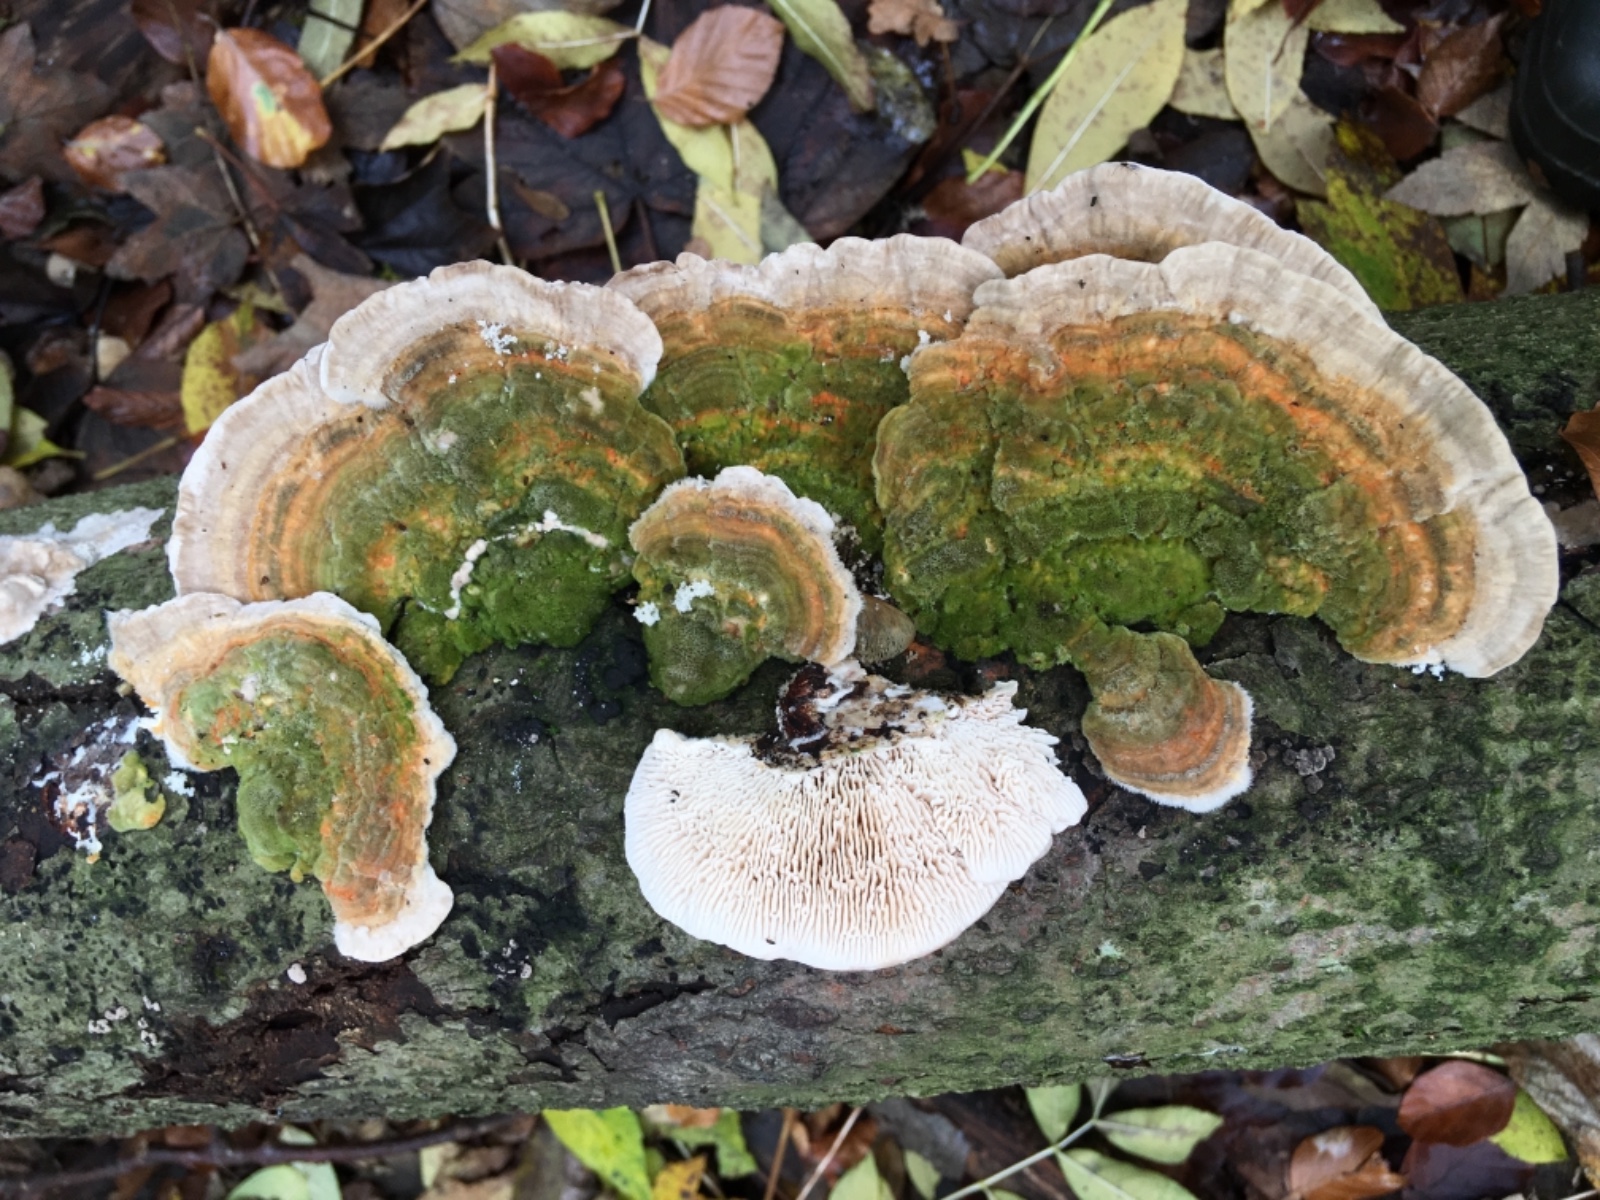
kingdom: Fungi
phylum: Basidiomycota
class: Agaricomycetes
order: Polyporales
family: Polyporaceae
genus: Lenzites
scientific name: Lenzites betulinus
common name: birke-læderporesvamp
